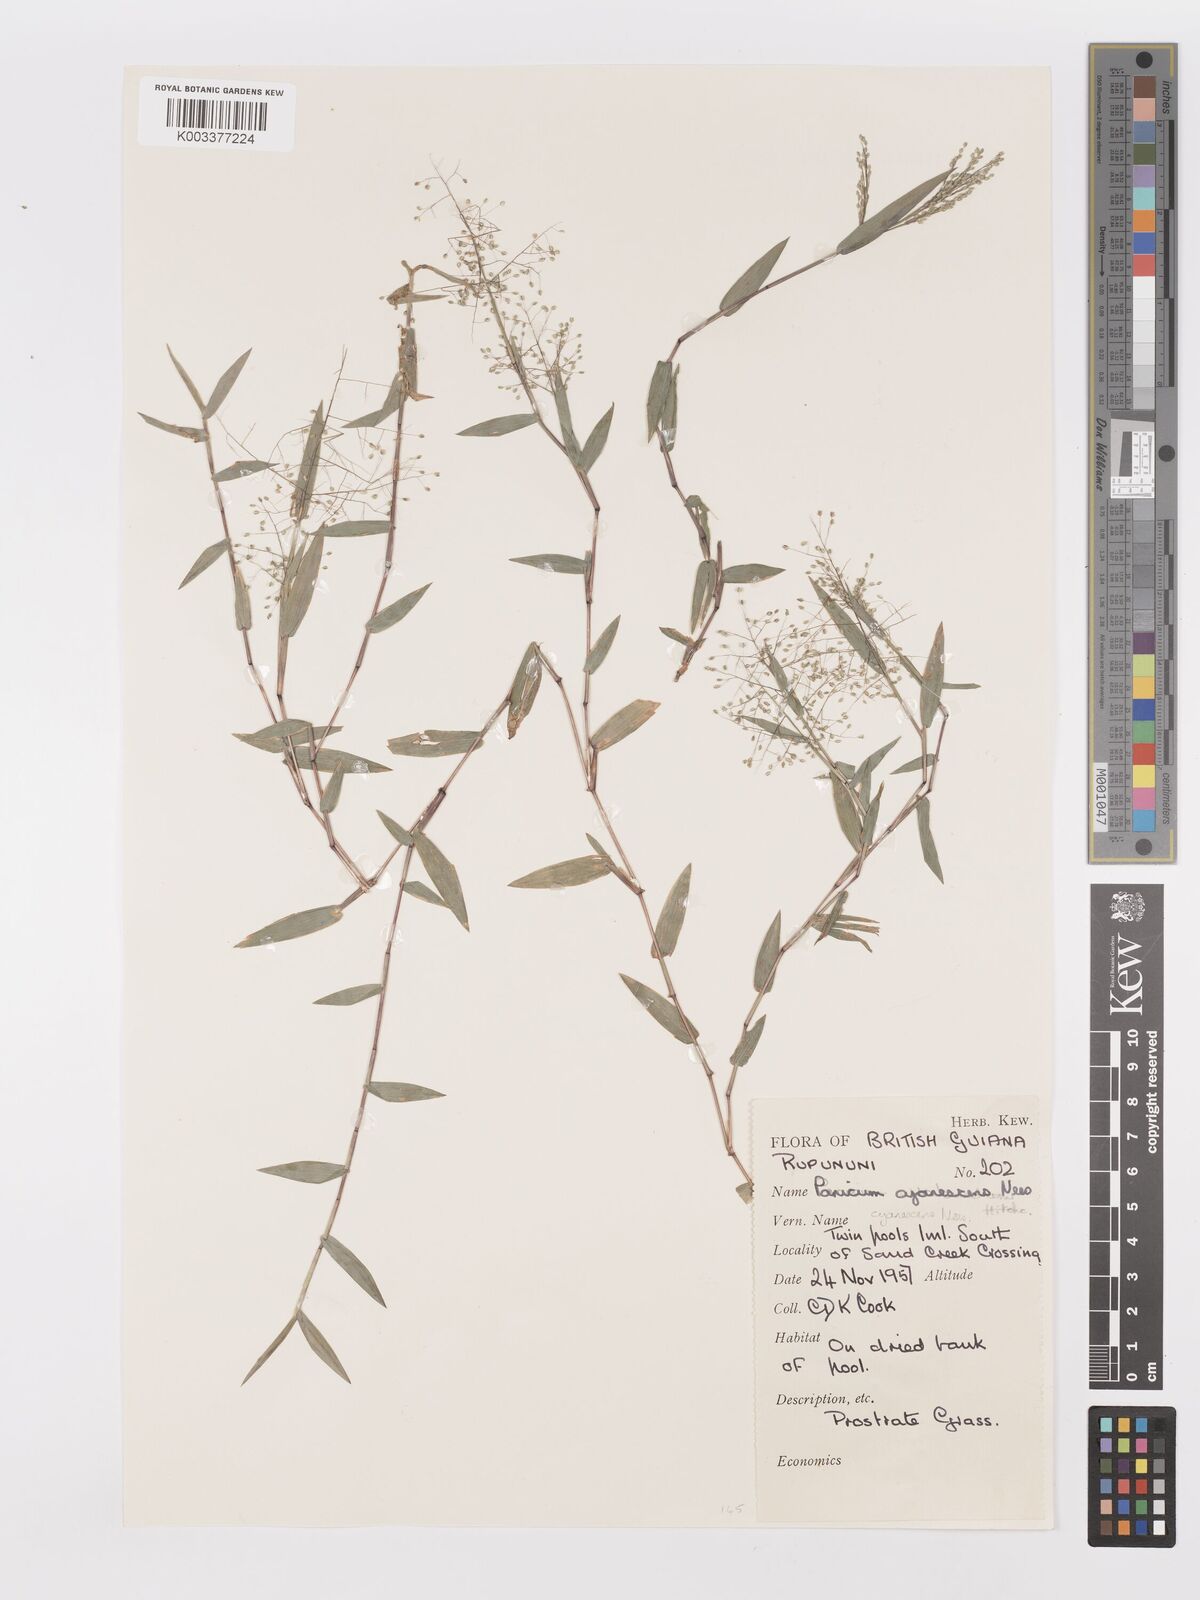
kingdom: Plantae
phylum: Tracheophyta
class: Liliopsida
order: Poales
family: Poaceae
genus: Trichanthecium
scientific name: Trichanthecium schwackeanum
